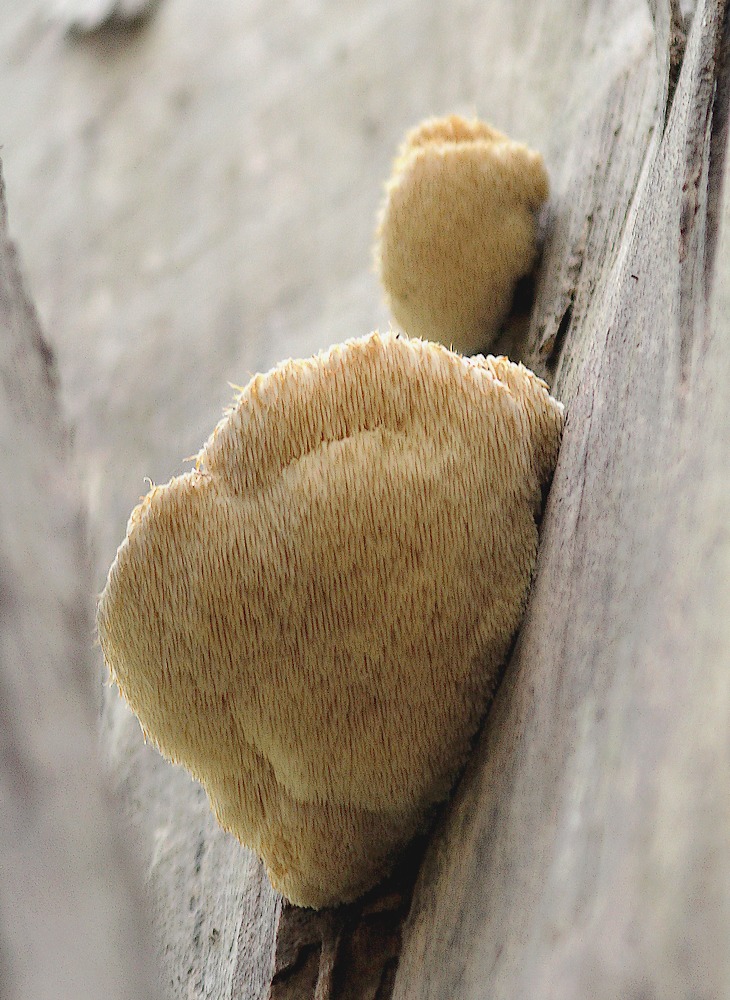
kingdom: Fungi
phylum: Basidiomycota
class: Agaricomycetes
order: Russulales
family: Hericiaceae
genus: Hericium
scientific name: Hericium erinaceus
